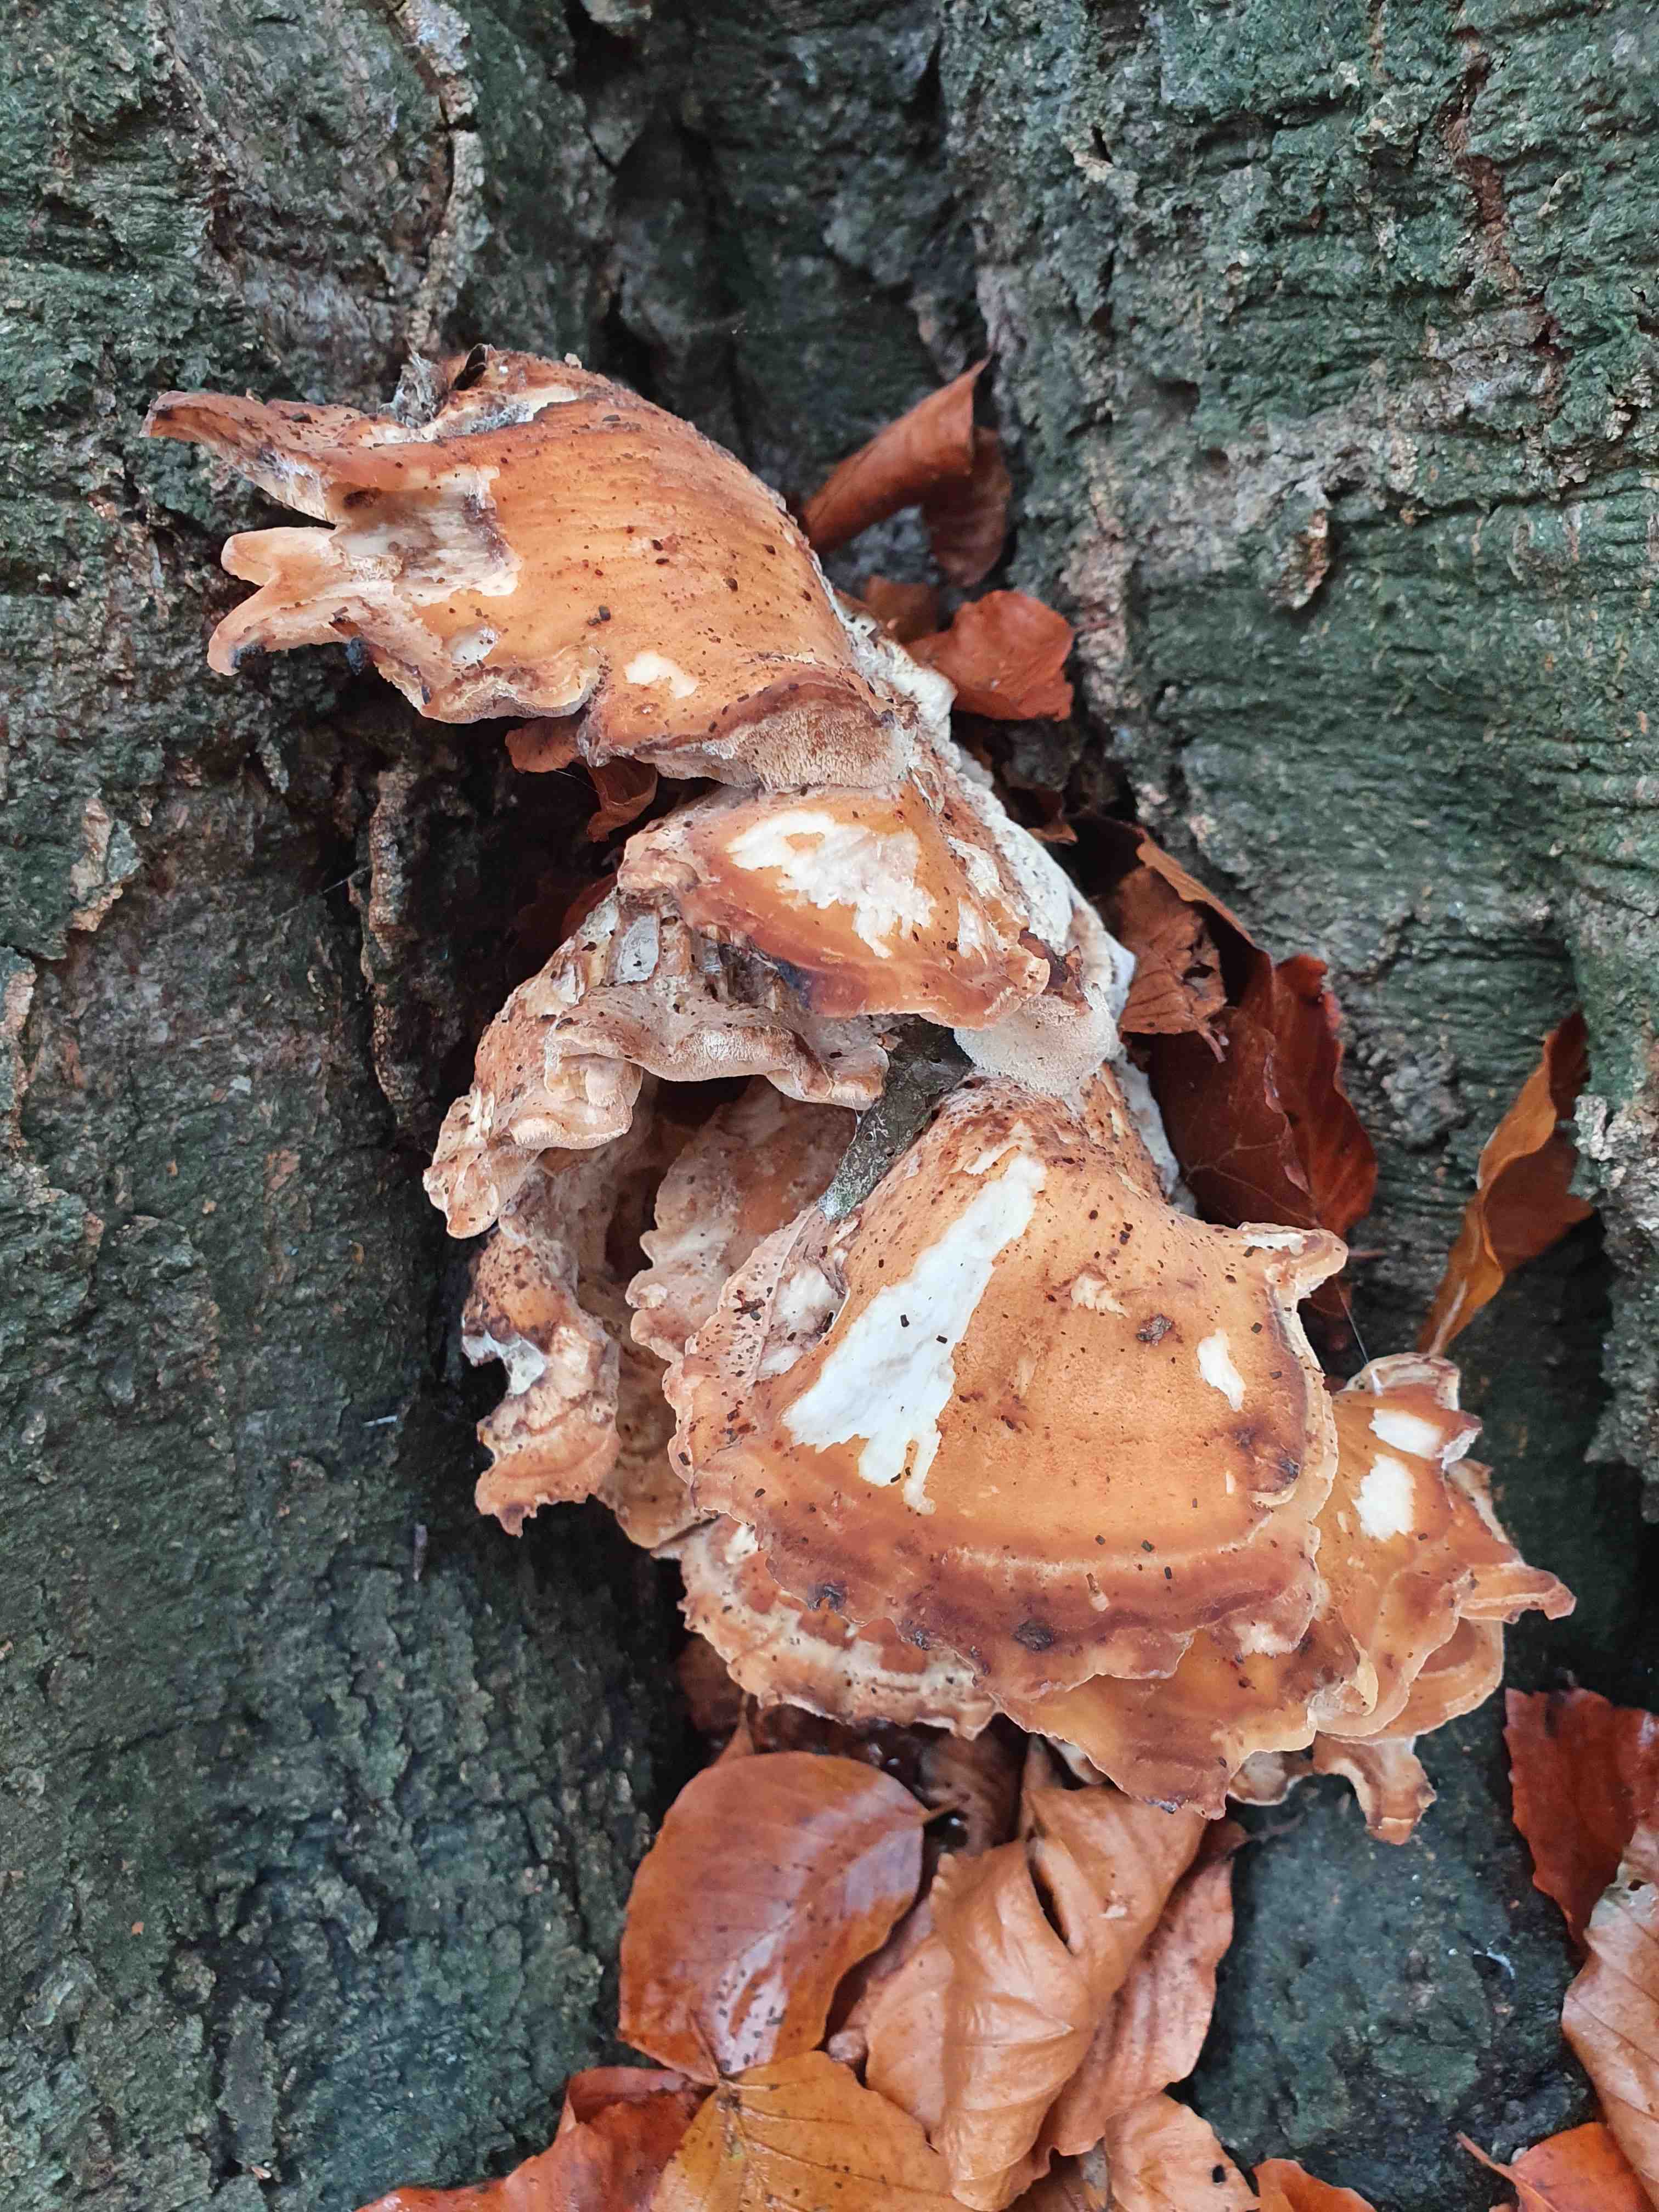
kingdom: Fungi
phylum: Basidiomycota
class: Agaricomycetes
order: Polyporales
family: Meripilaceae
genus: Meripilus
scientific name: Meripilus giganteus
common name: kæmpeporesvamp
